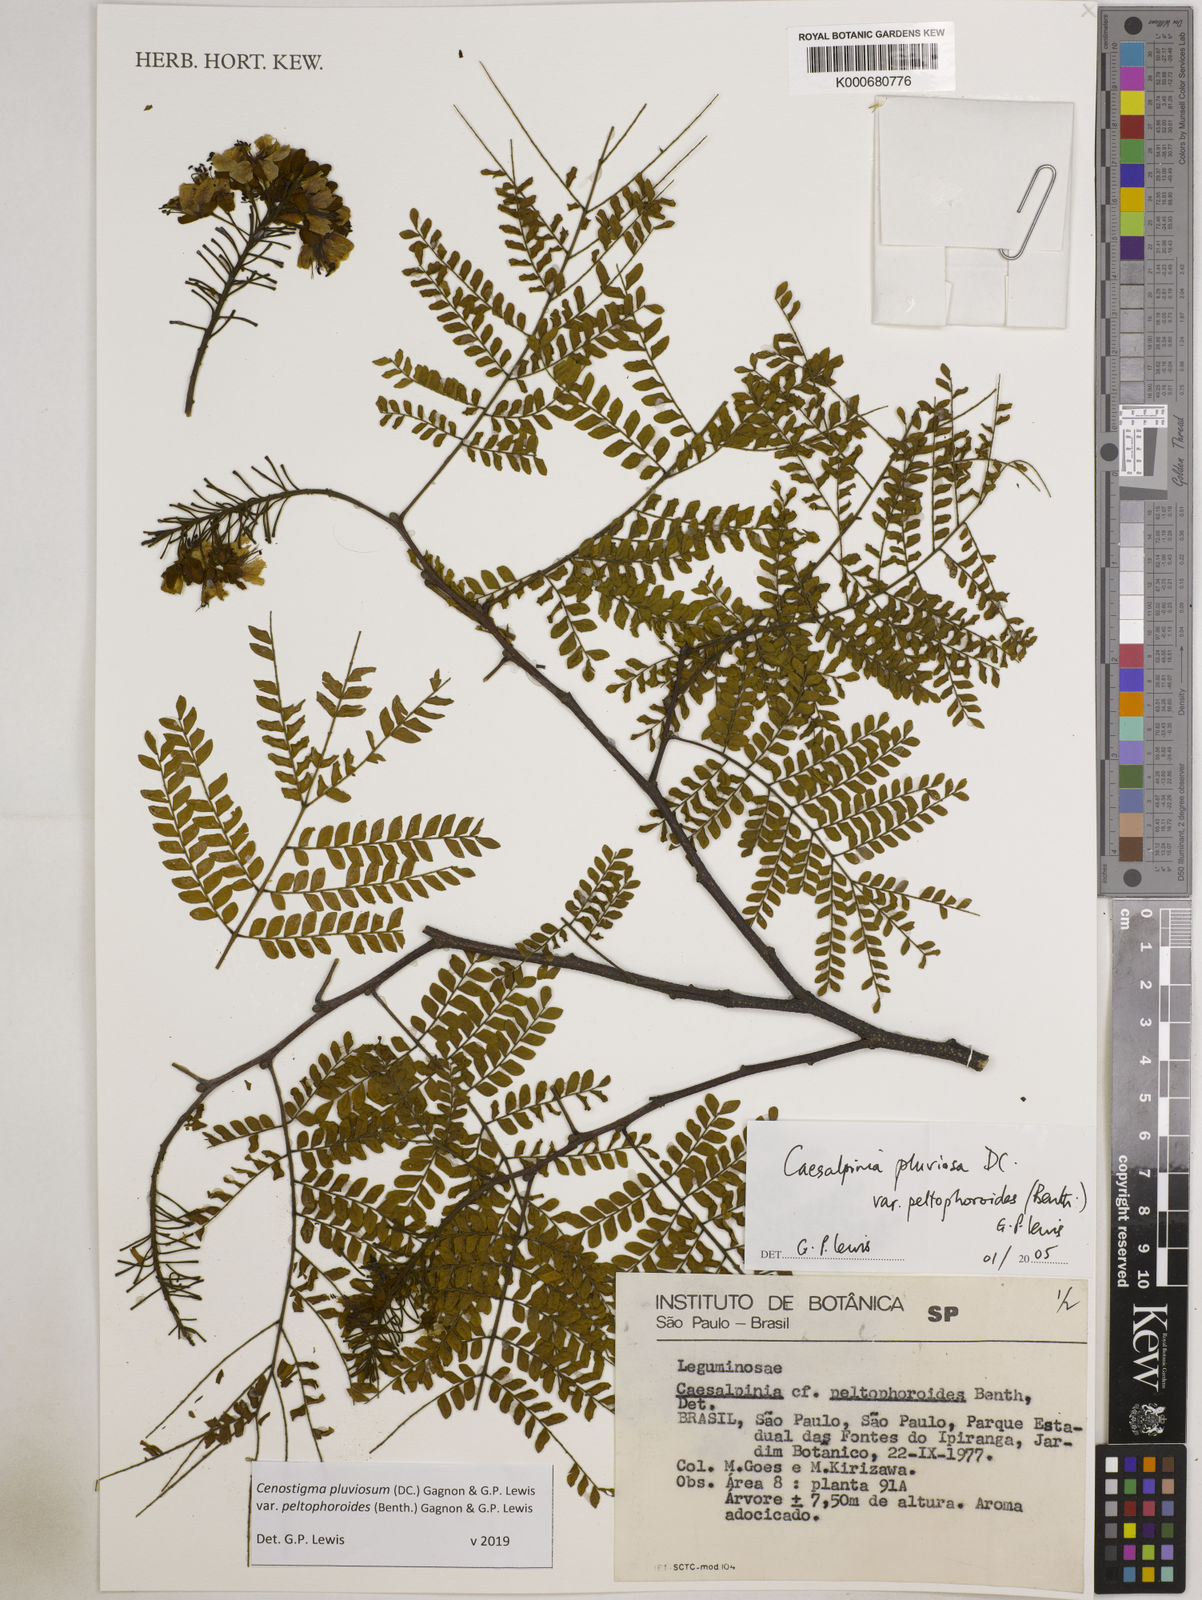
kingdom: Plantae
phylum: Tracheophyta
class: Magnoliopsida
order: Fabales
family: Fabaceae
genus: Cenostigma
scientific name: Cenostigma pluviosum
